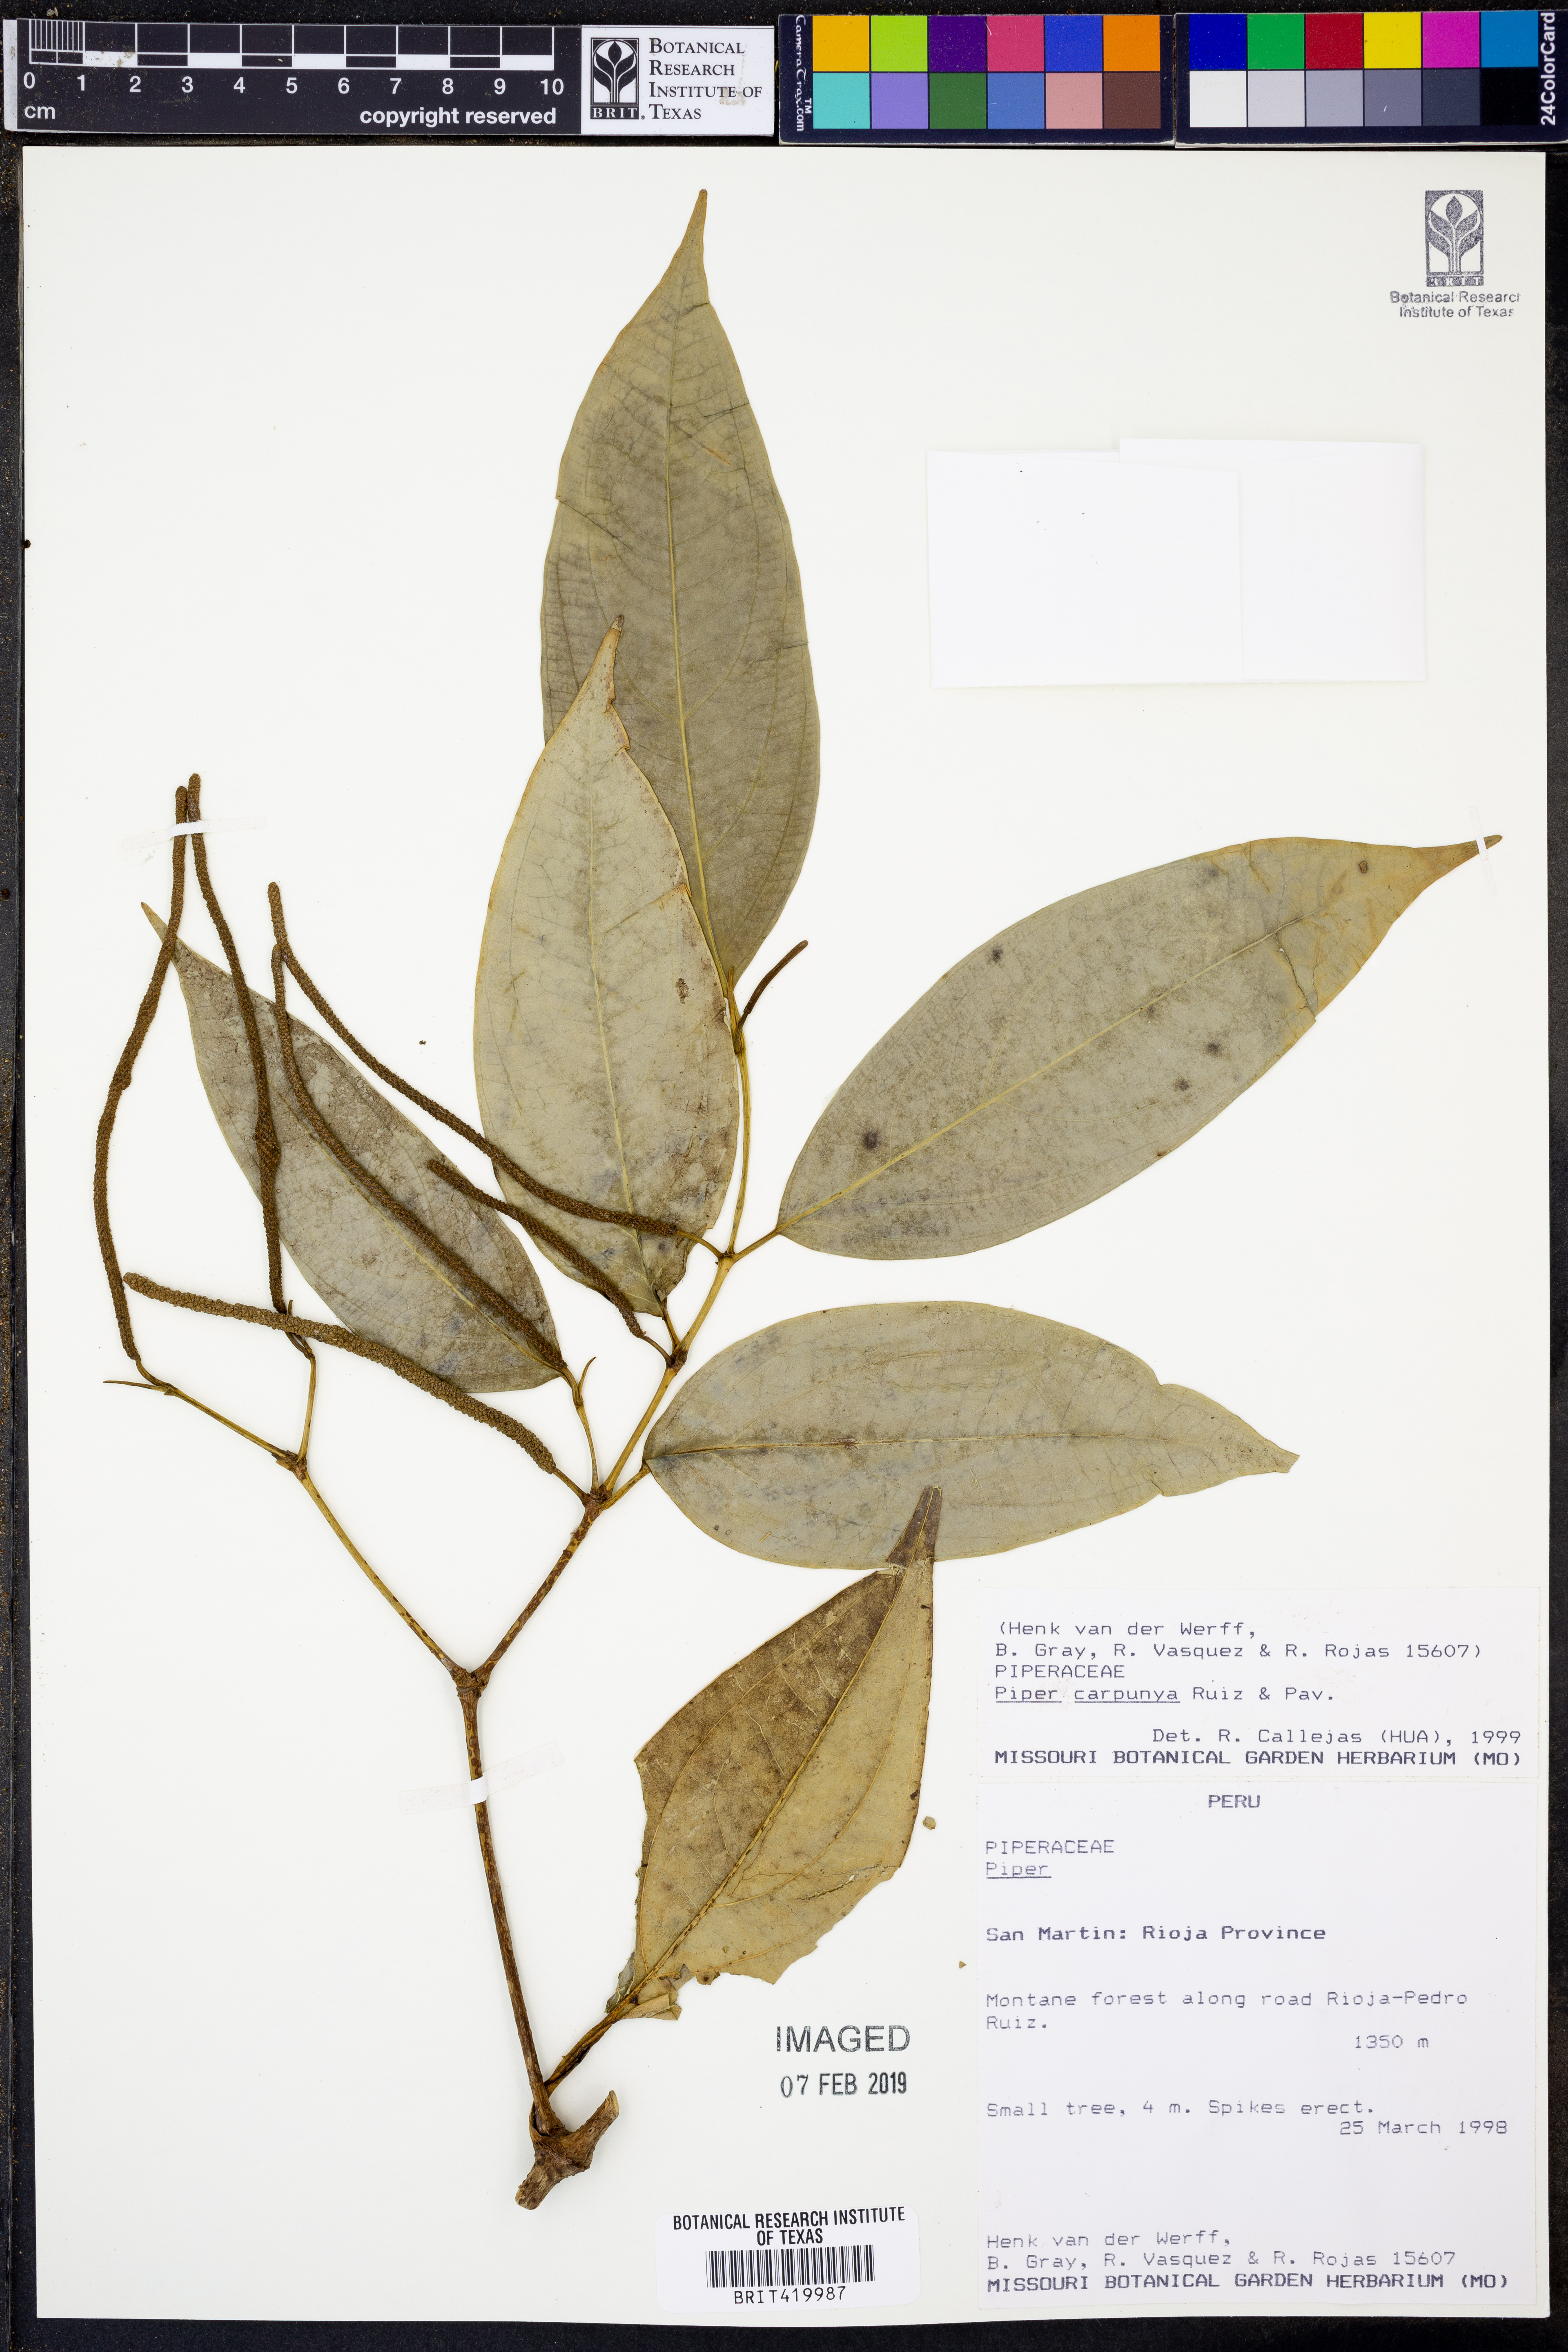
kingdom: Plantae
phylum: Tracheophyta
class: Magnoliopsida
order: Piperales
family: Piperaceae
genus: Piper
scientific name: Piper carpunya
